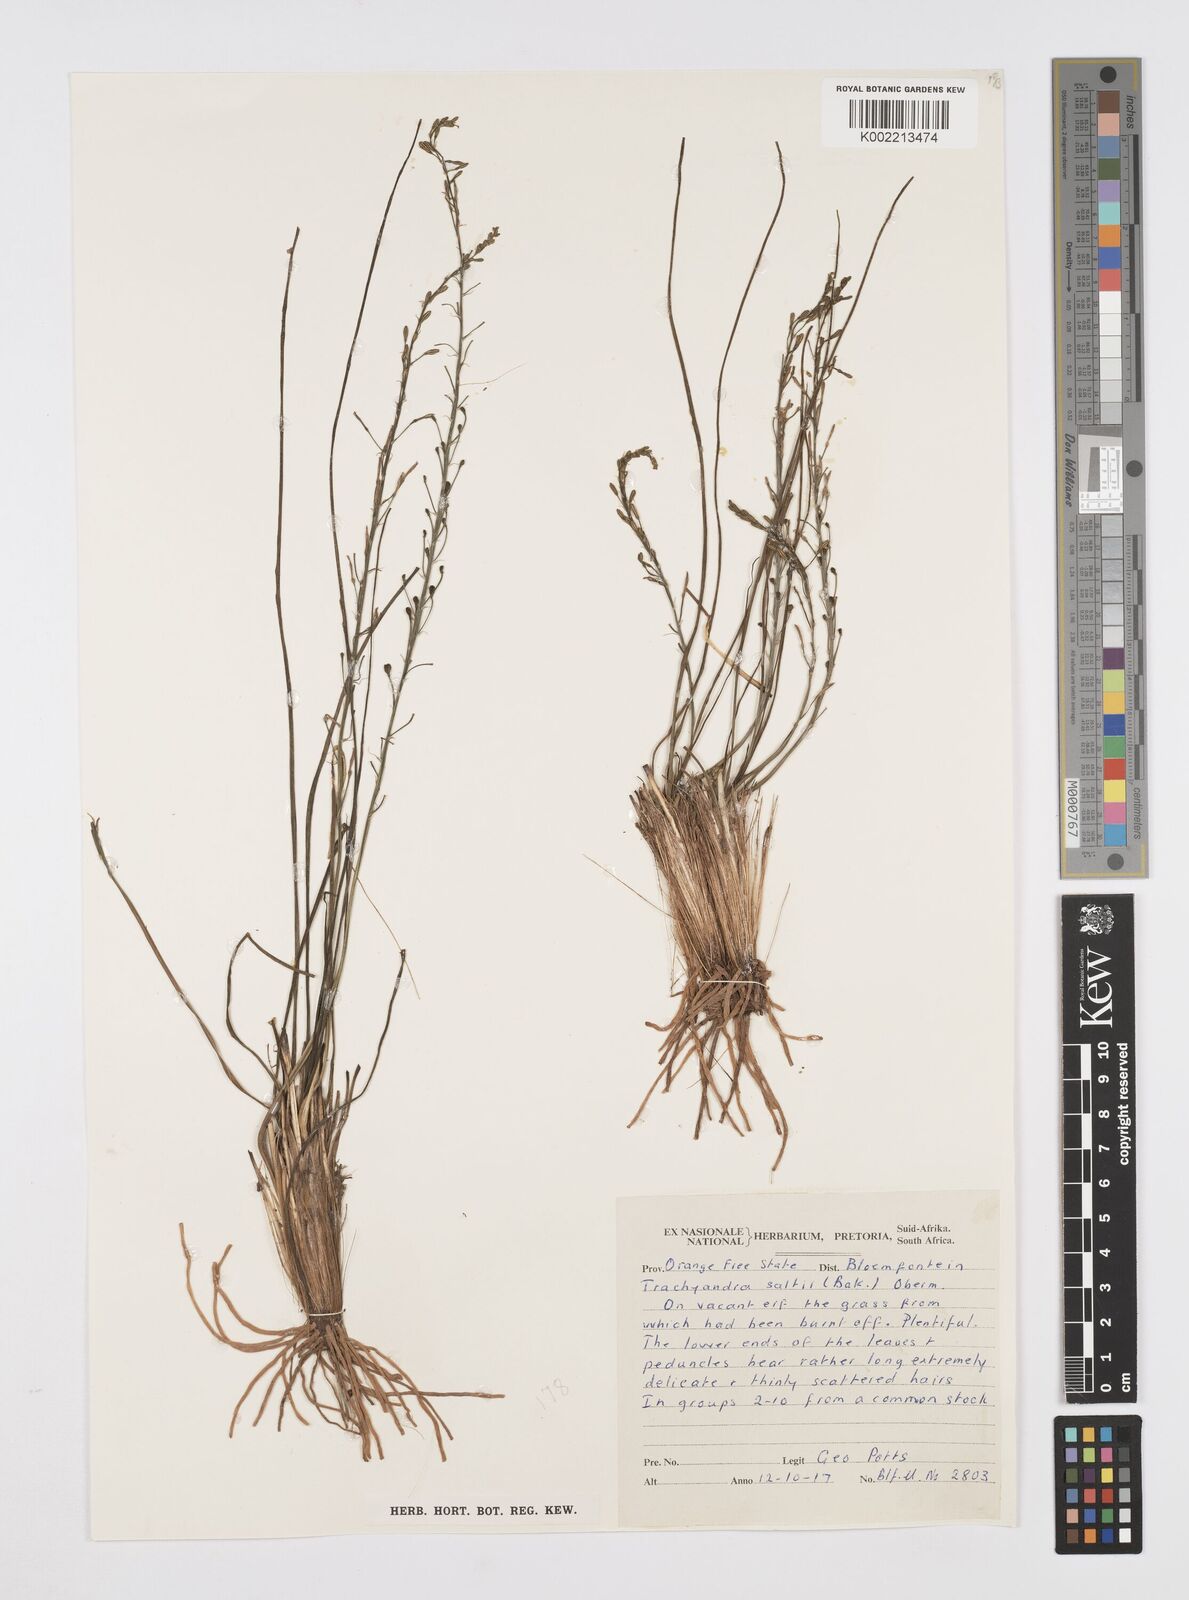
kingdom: Plantae
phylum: Tracheophyta
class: Liliopsida
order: Asparagales
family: Asphodelaceae
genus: Trachyandra
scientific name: Trachyandra saltii
